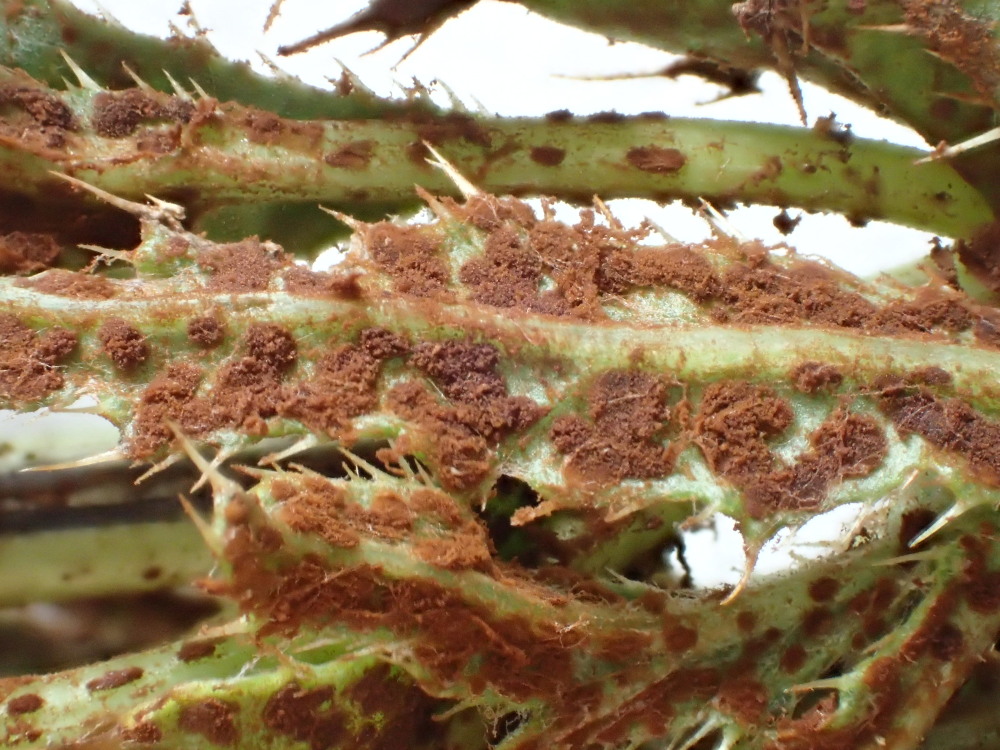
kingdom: Fungi
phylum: Basidiomycota
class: Pucciniomycetes
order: Pucciniales
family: Pucciniaceae
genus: Puccinia
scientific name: Puccinia suaveolens
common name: tidsel-tvecellerust
